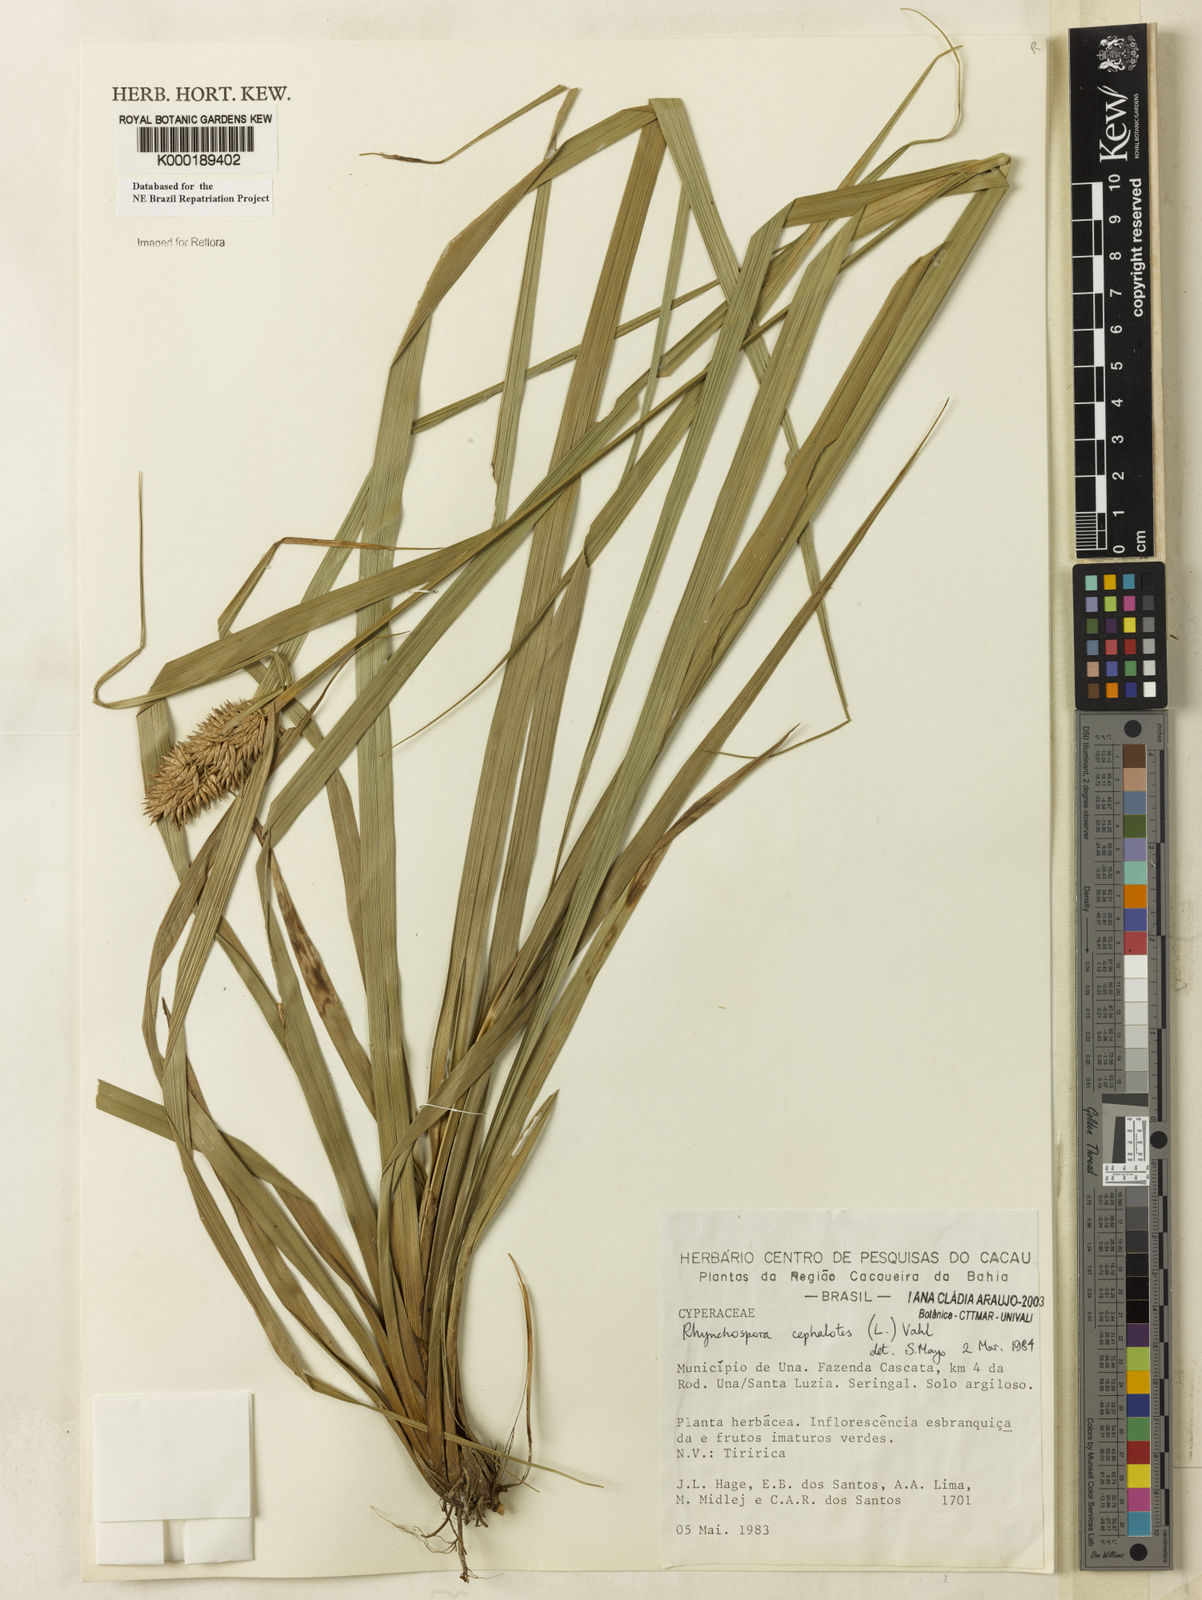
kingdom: Plantae
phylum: Tracheophyta
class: Liliopsida
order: Poales
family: Cyperaceae
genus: Rhynchospora
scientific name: Rhynchospora cephalotes
